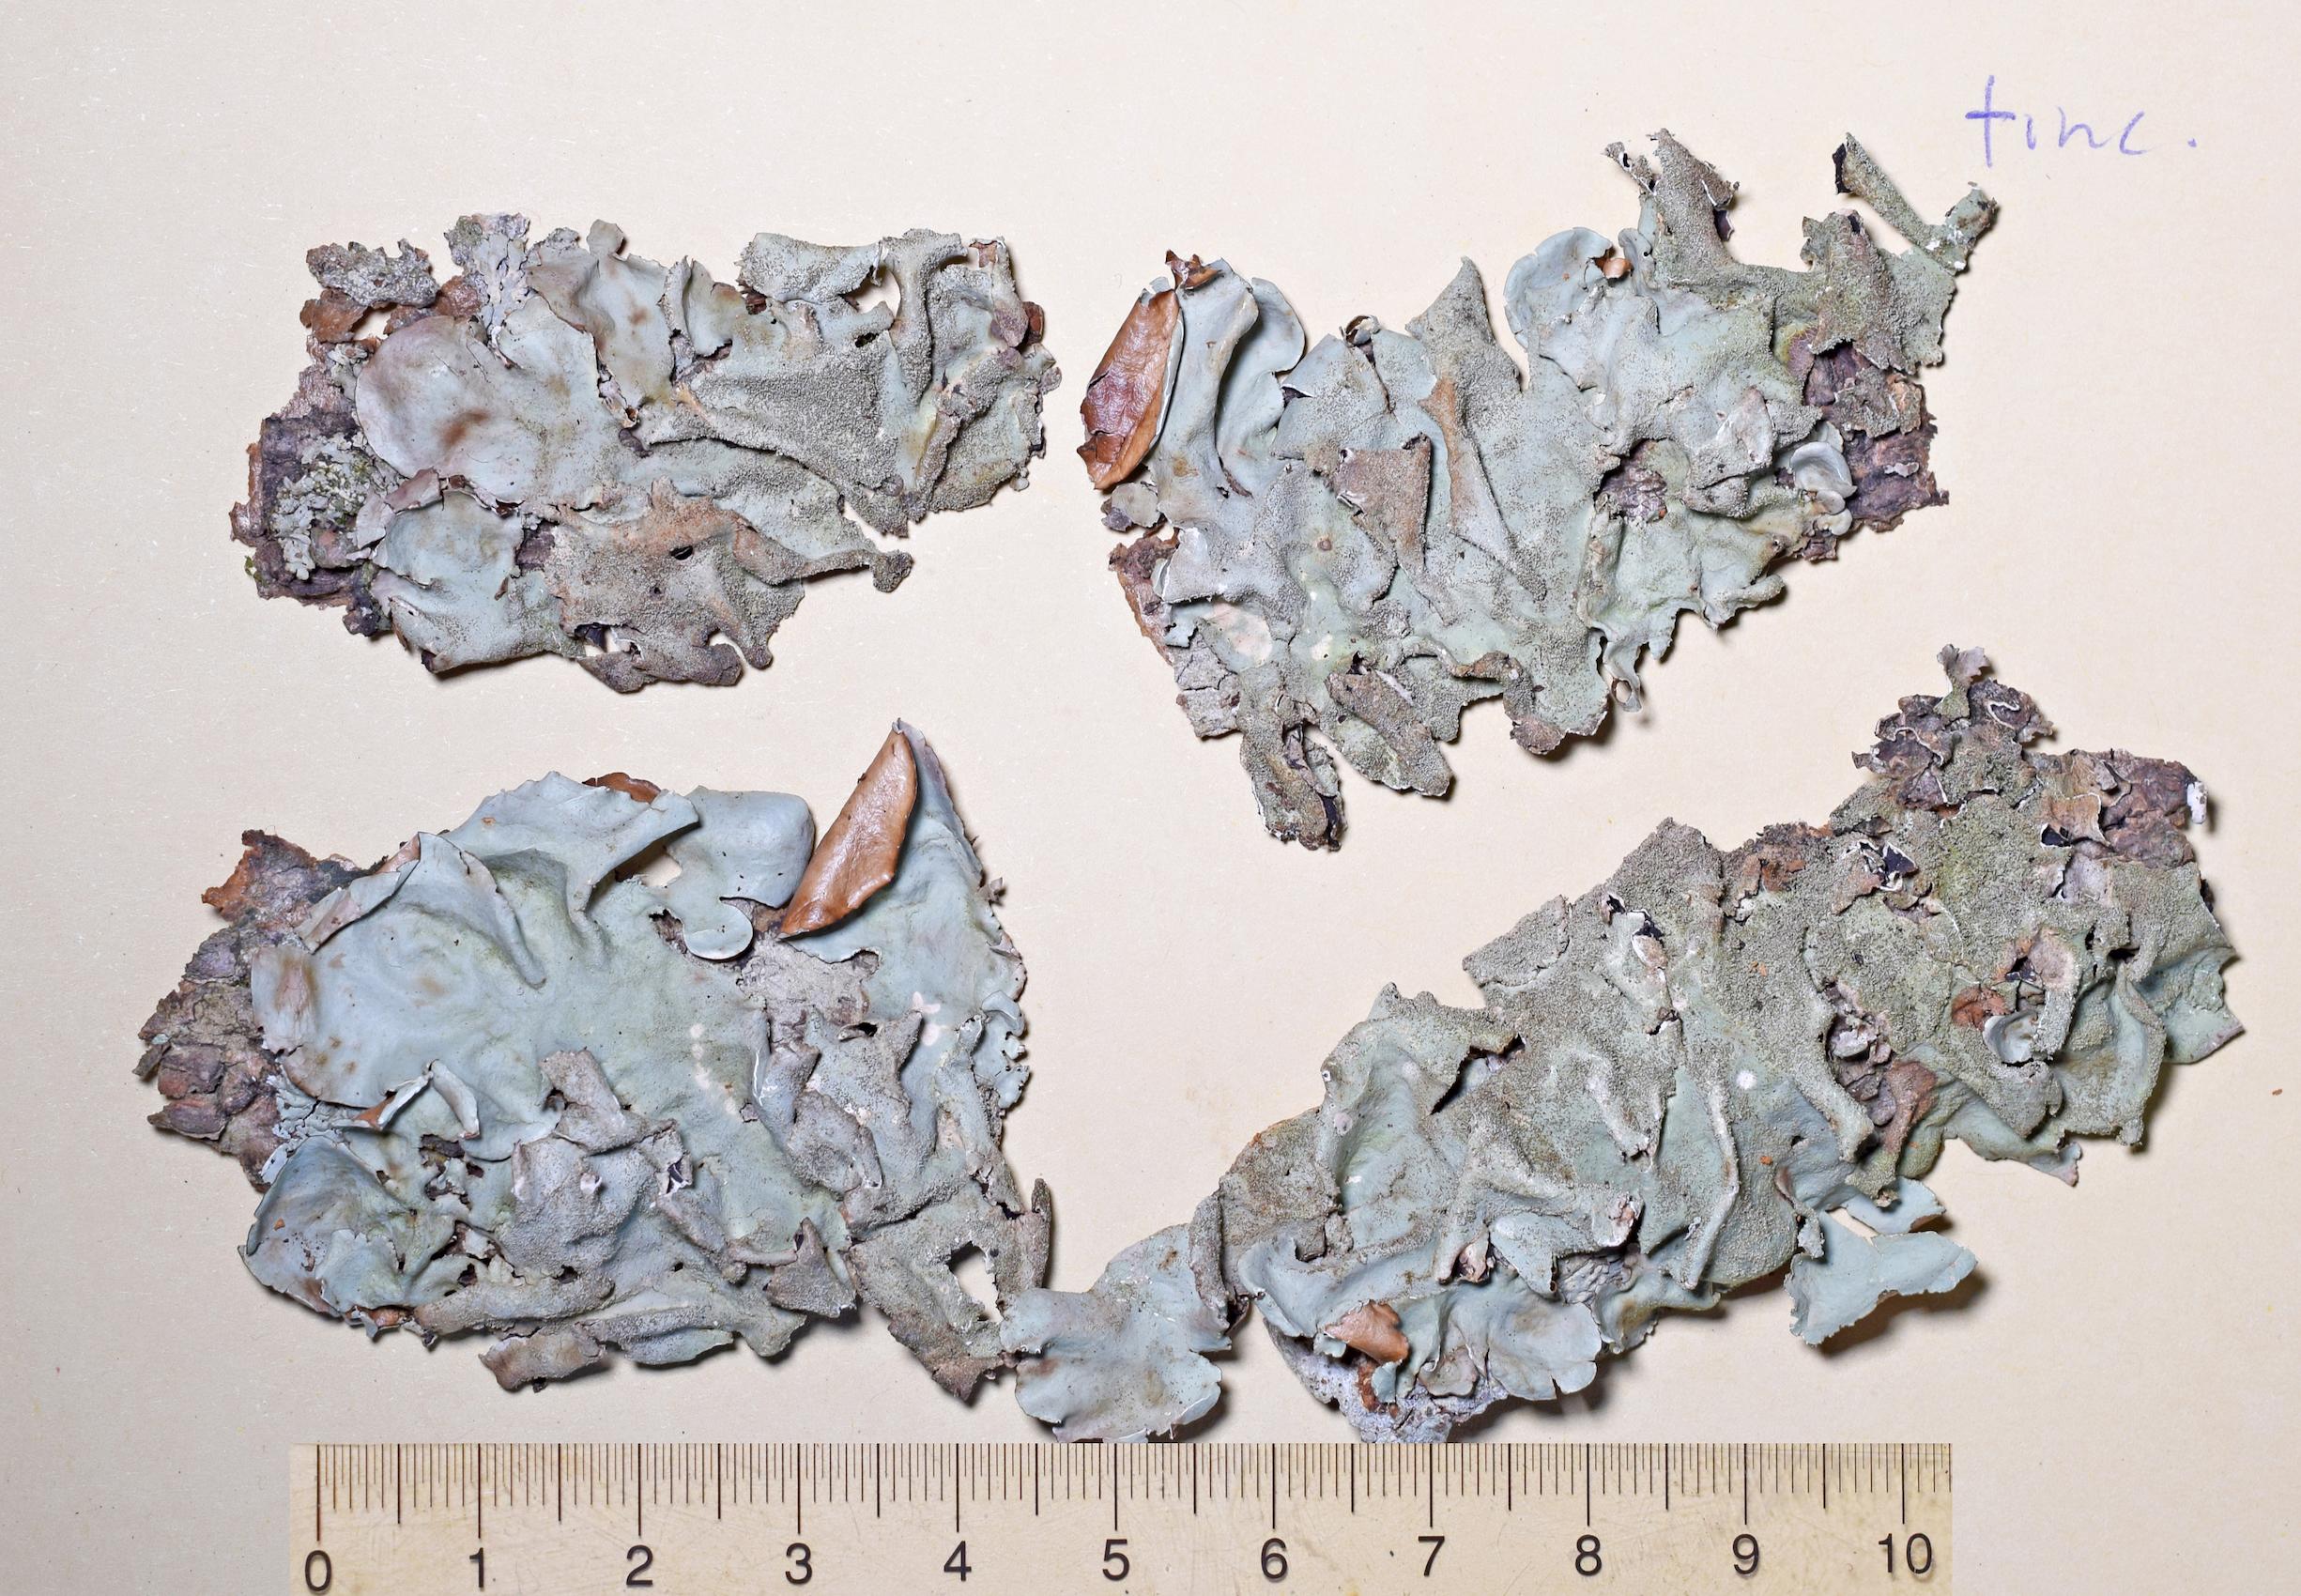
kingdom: Fungi
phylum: Ascomycota
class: Lecanoromycetes
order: Lecanorales
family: Parmeliaceae
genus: Parmotrema
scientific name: Parmotrema
